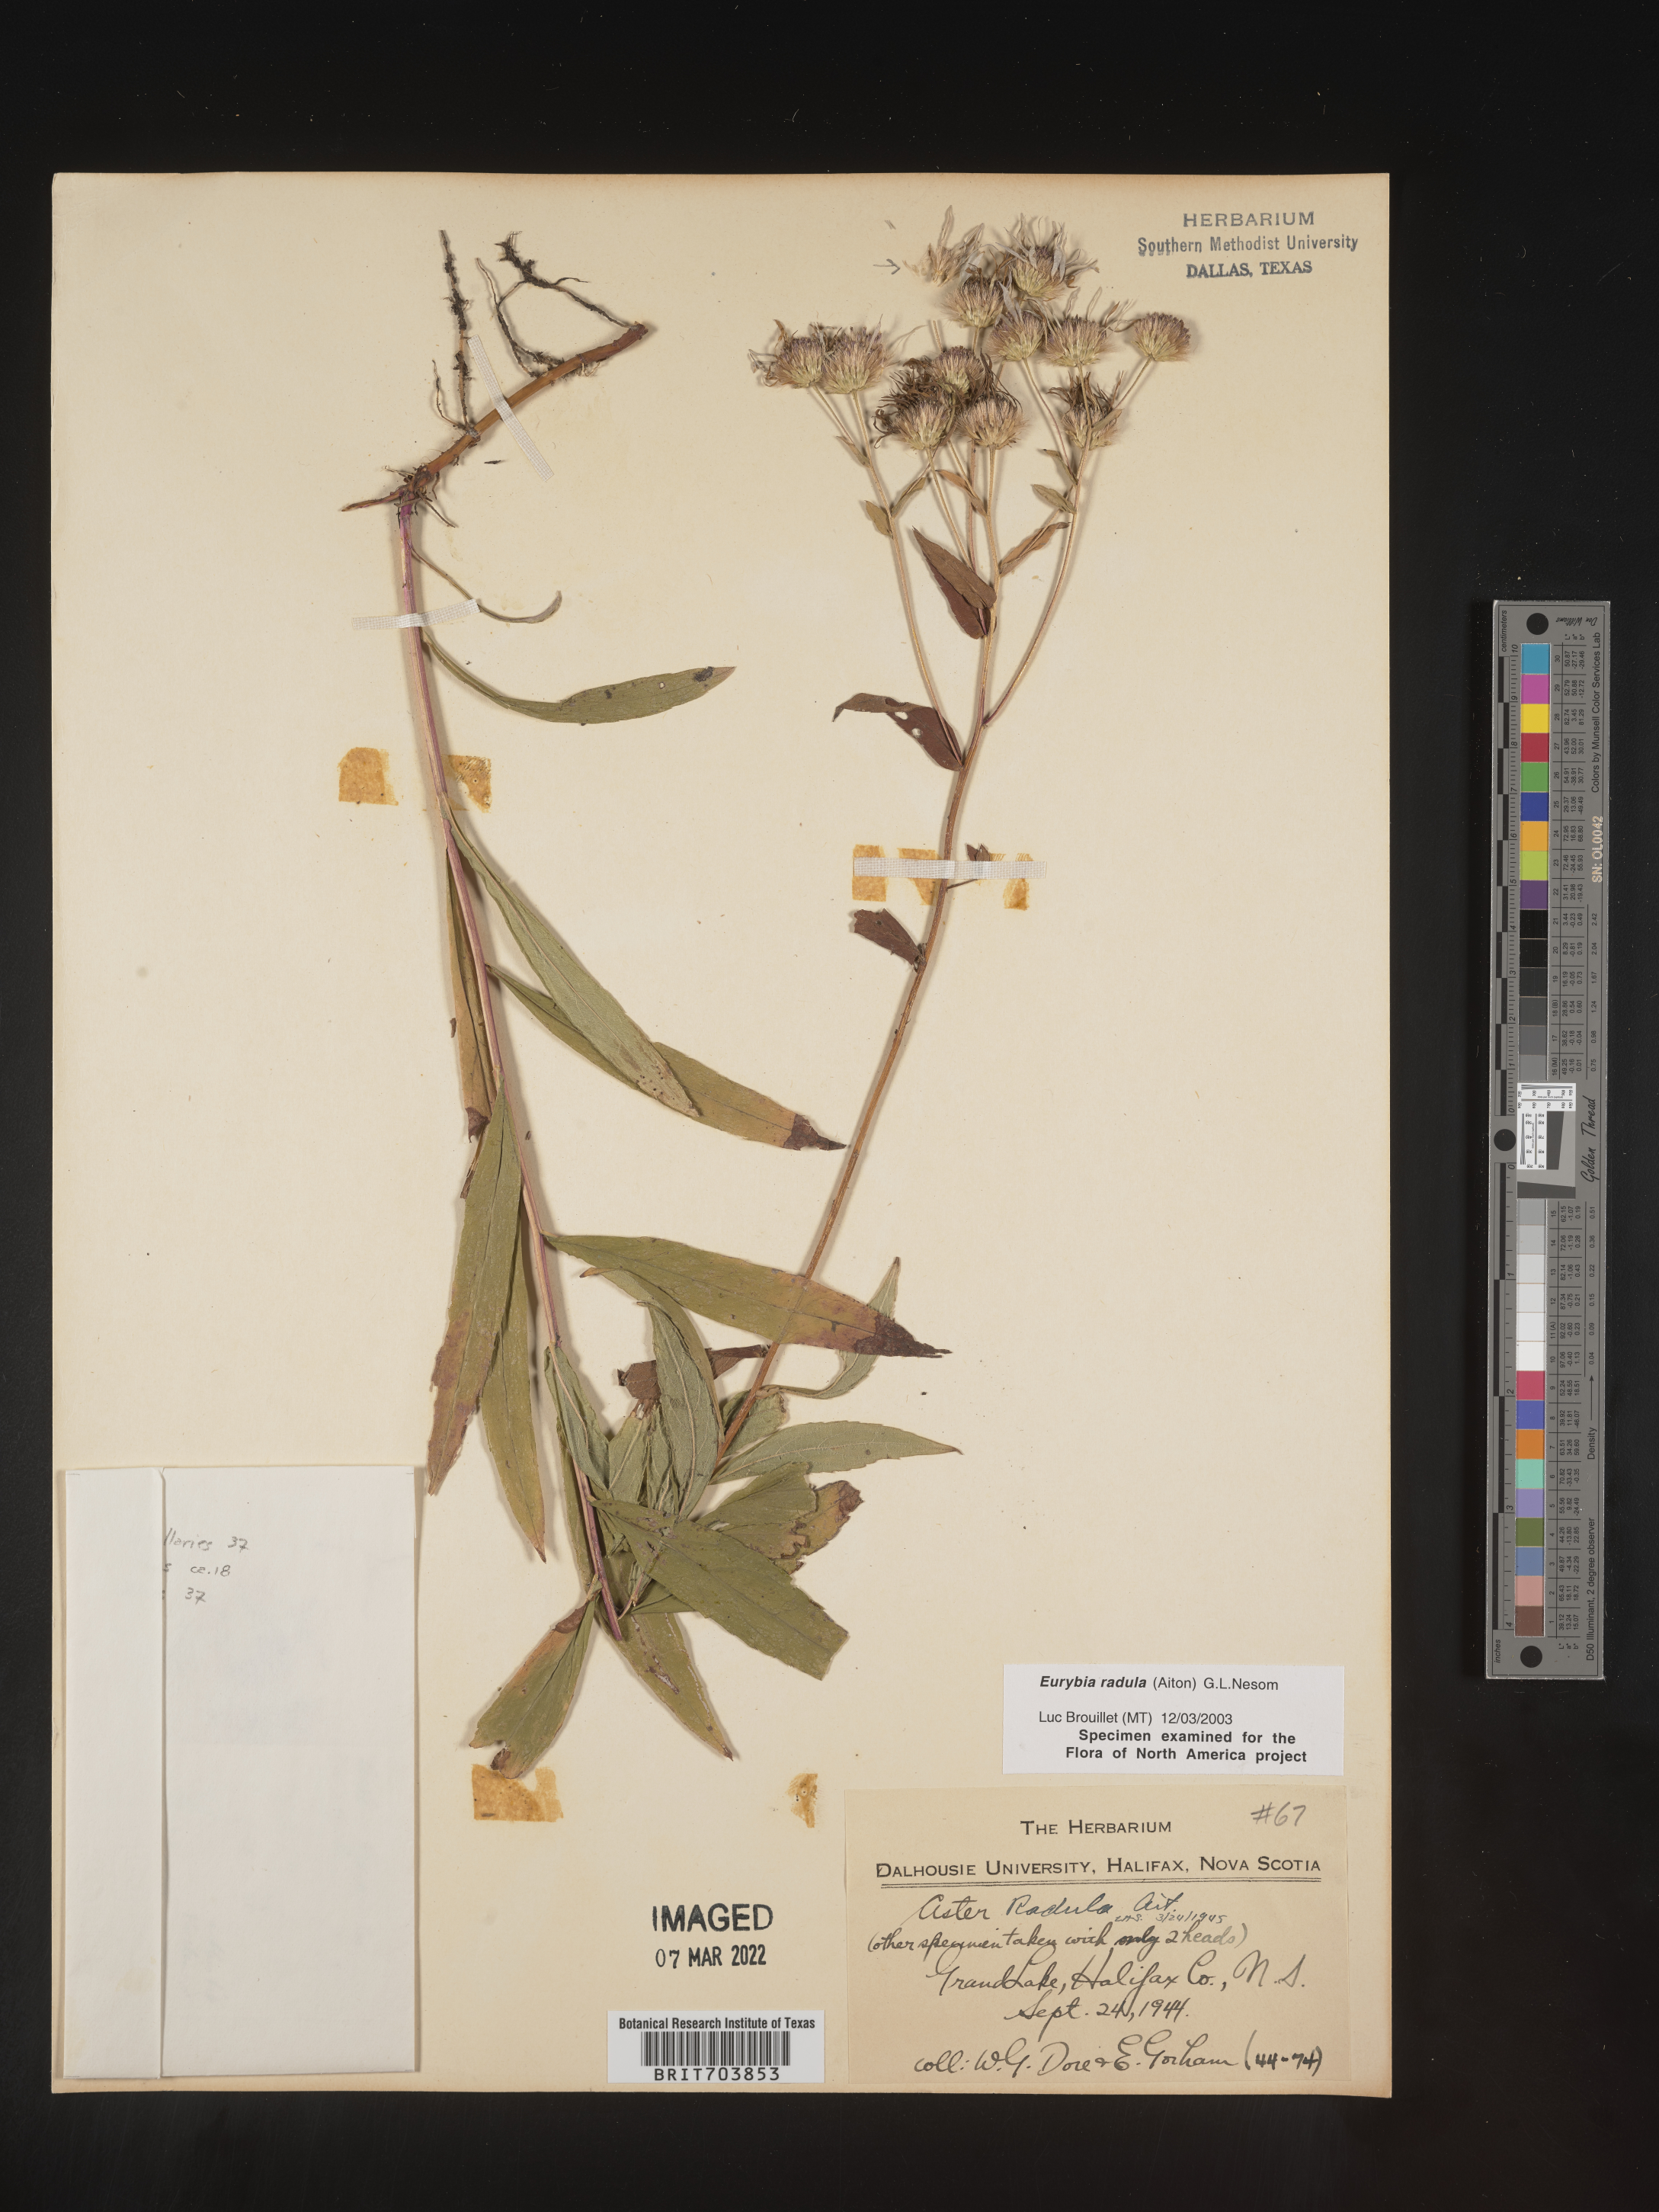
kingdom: Plantae
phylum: Tracheophyta
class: Magnoliopsida
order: Asterales
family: Asteraceae
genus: Eurybia
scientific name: Eurybia radula
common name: Low rough aster
